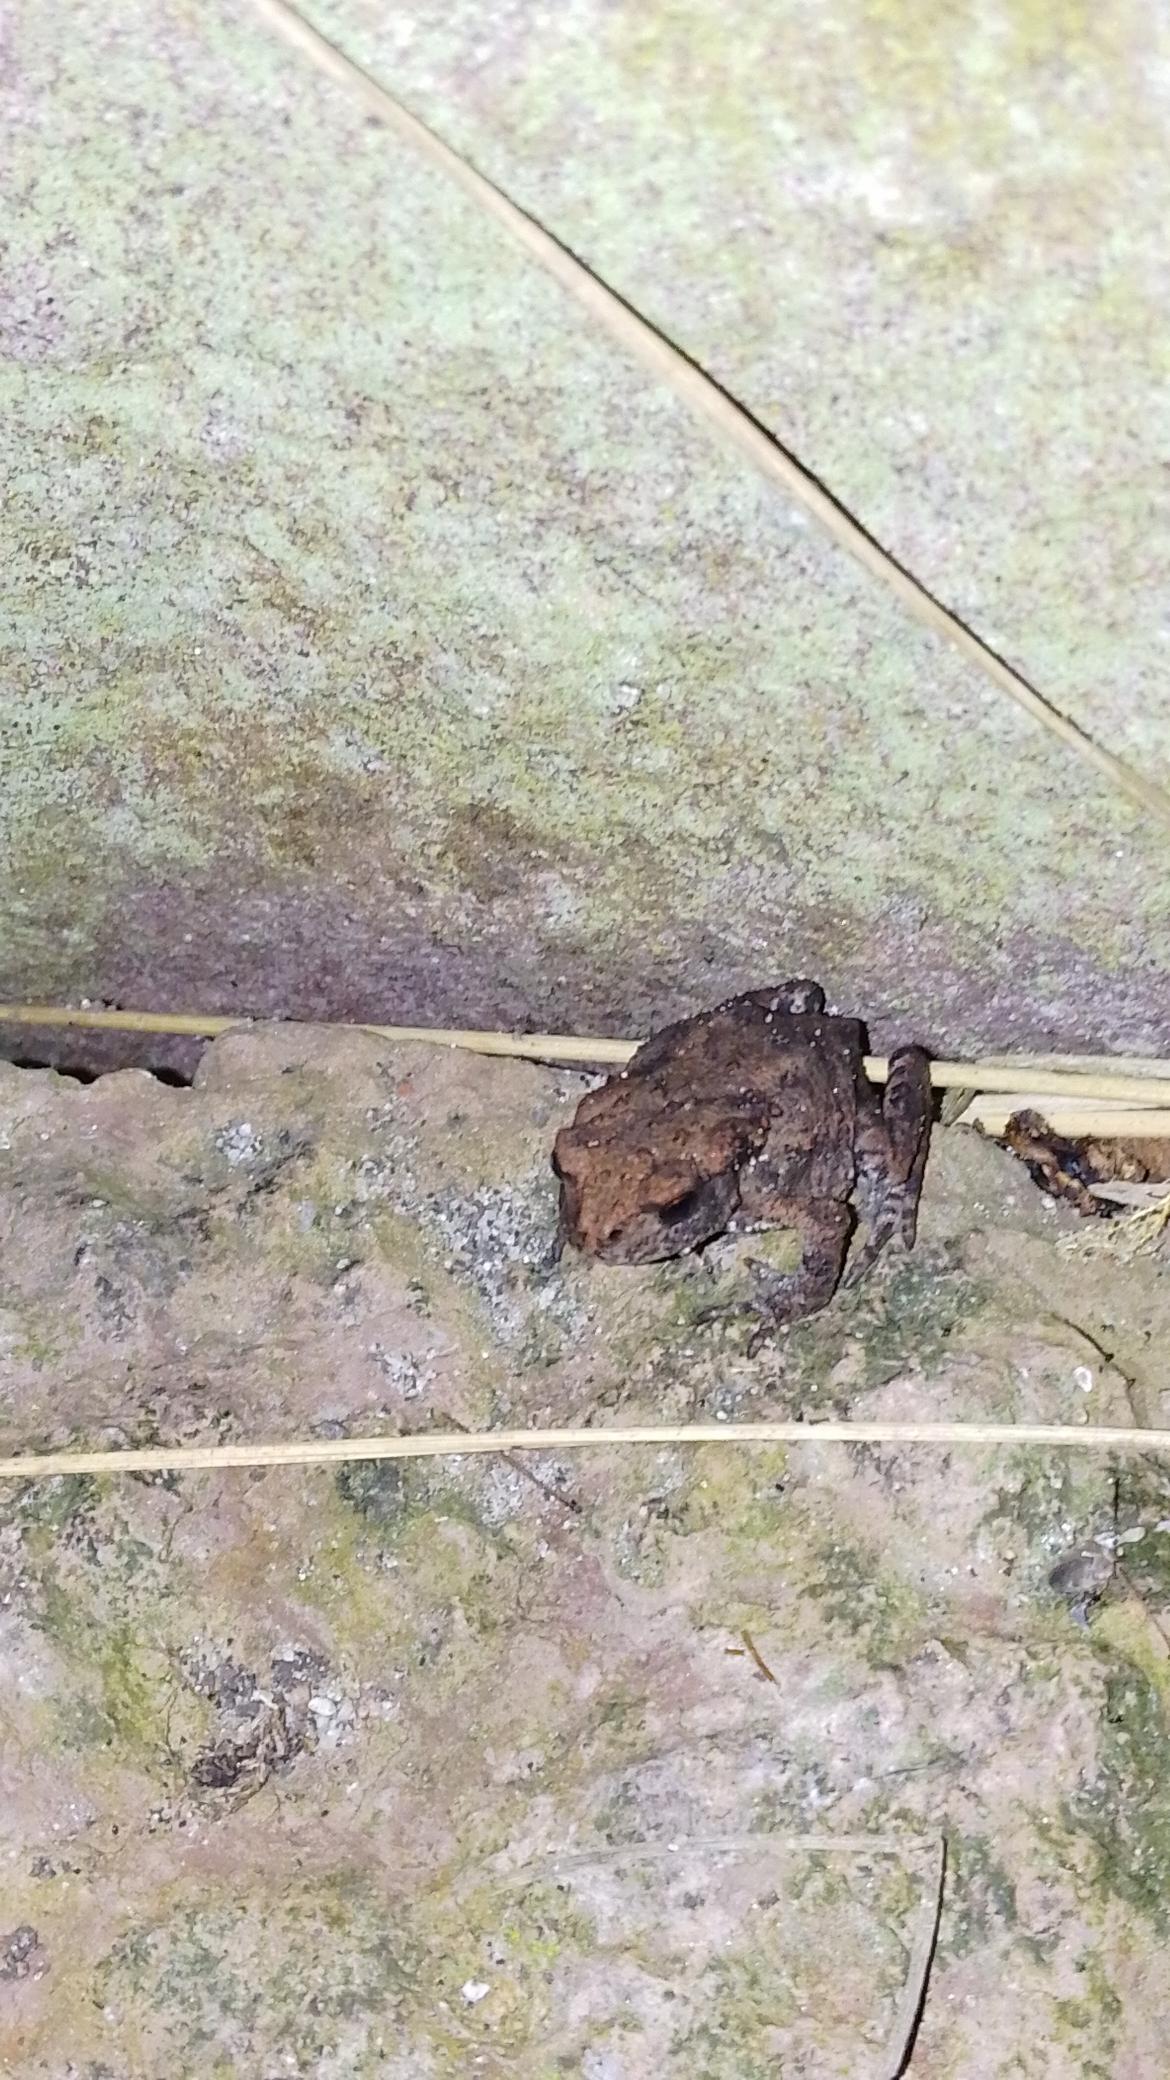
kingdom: Animalia
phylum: Chordata
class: Amphibia
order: Anura
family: Bufonidae
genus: Bufo
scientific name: Bufo bufo
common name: Skrubtudse
